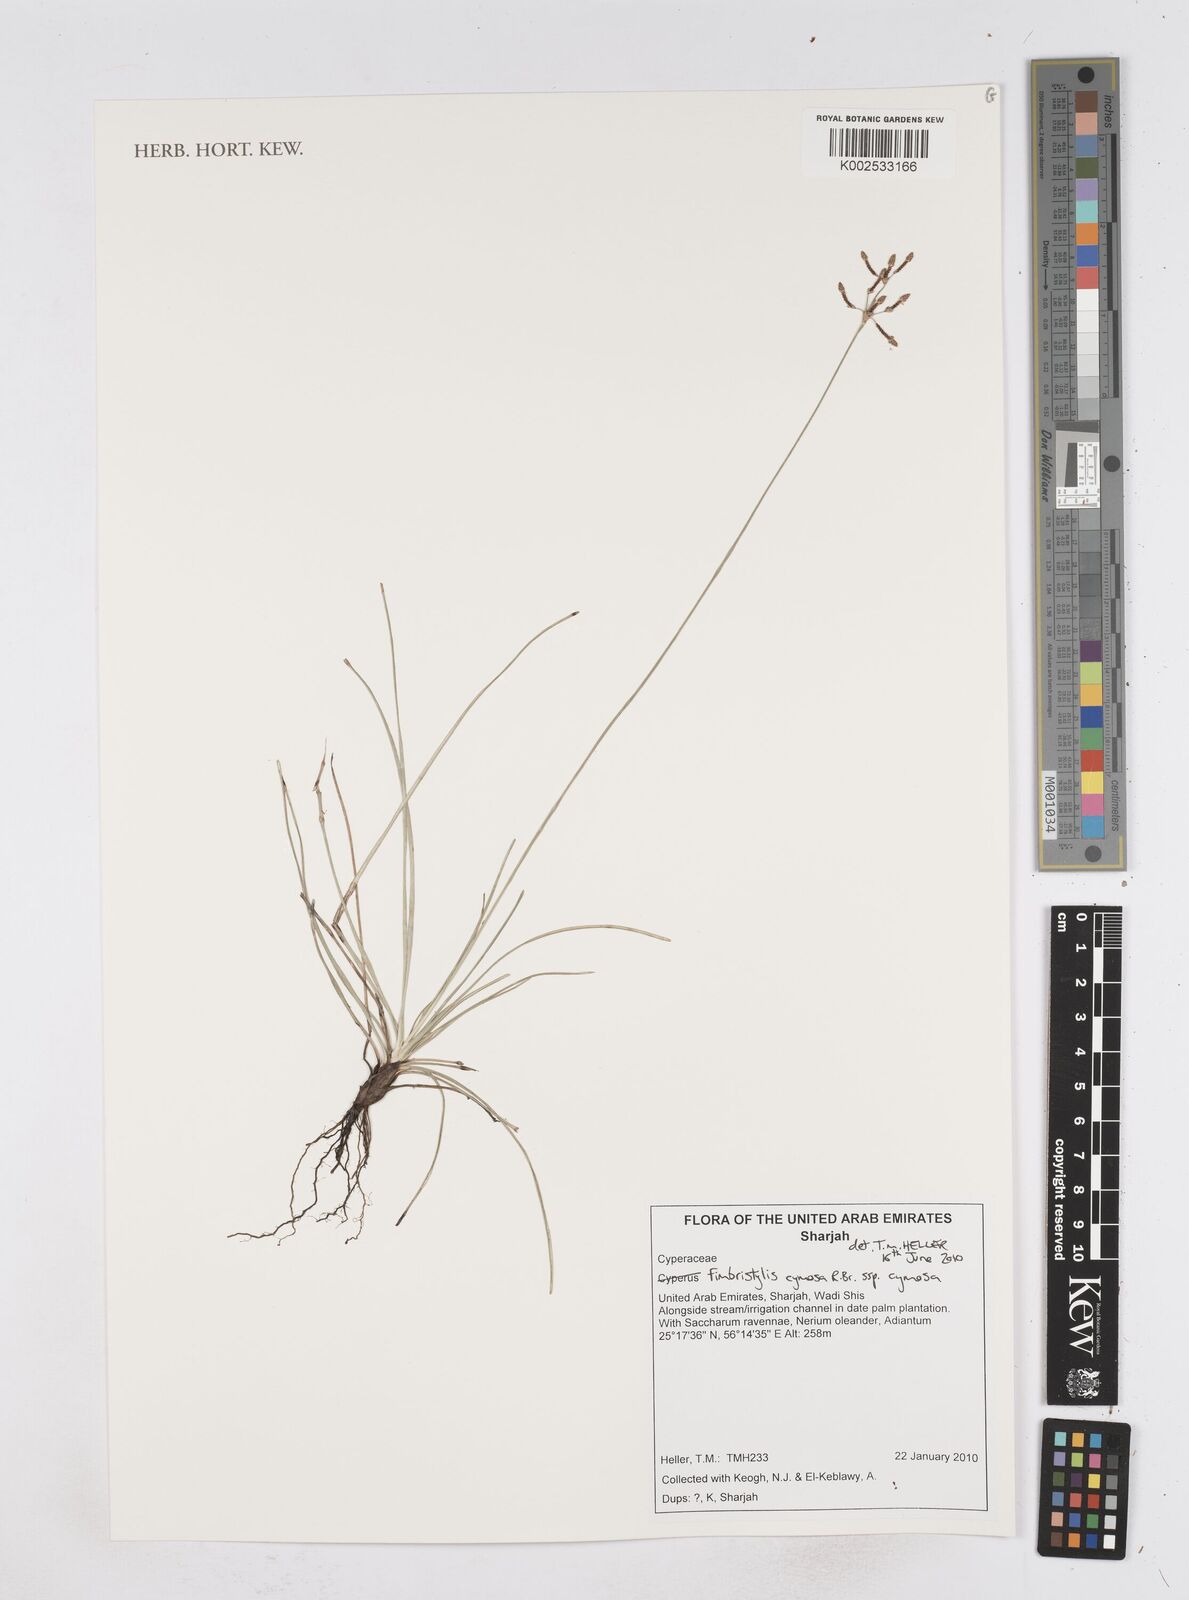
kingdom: Plantae
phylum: Tracheophyta
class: Liliopsida
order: Poales
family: Cyperaceae
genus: Fimbristylis
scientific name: Fimbristylis cymosa
